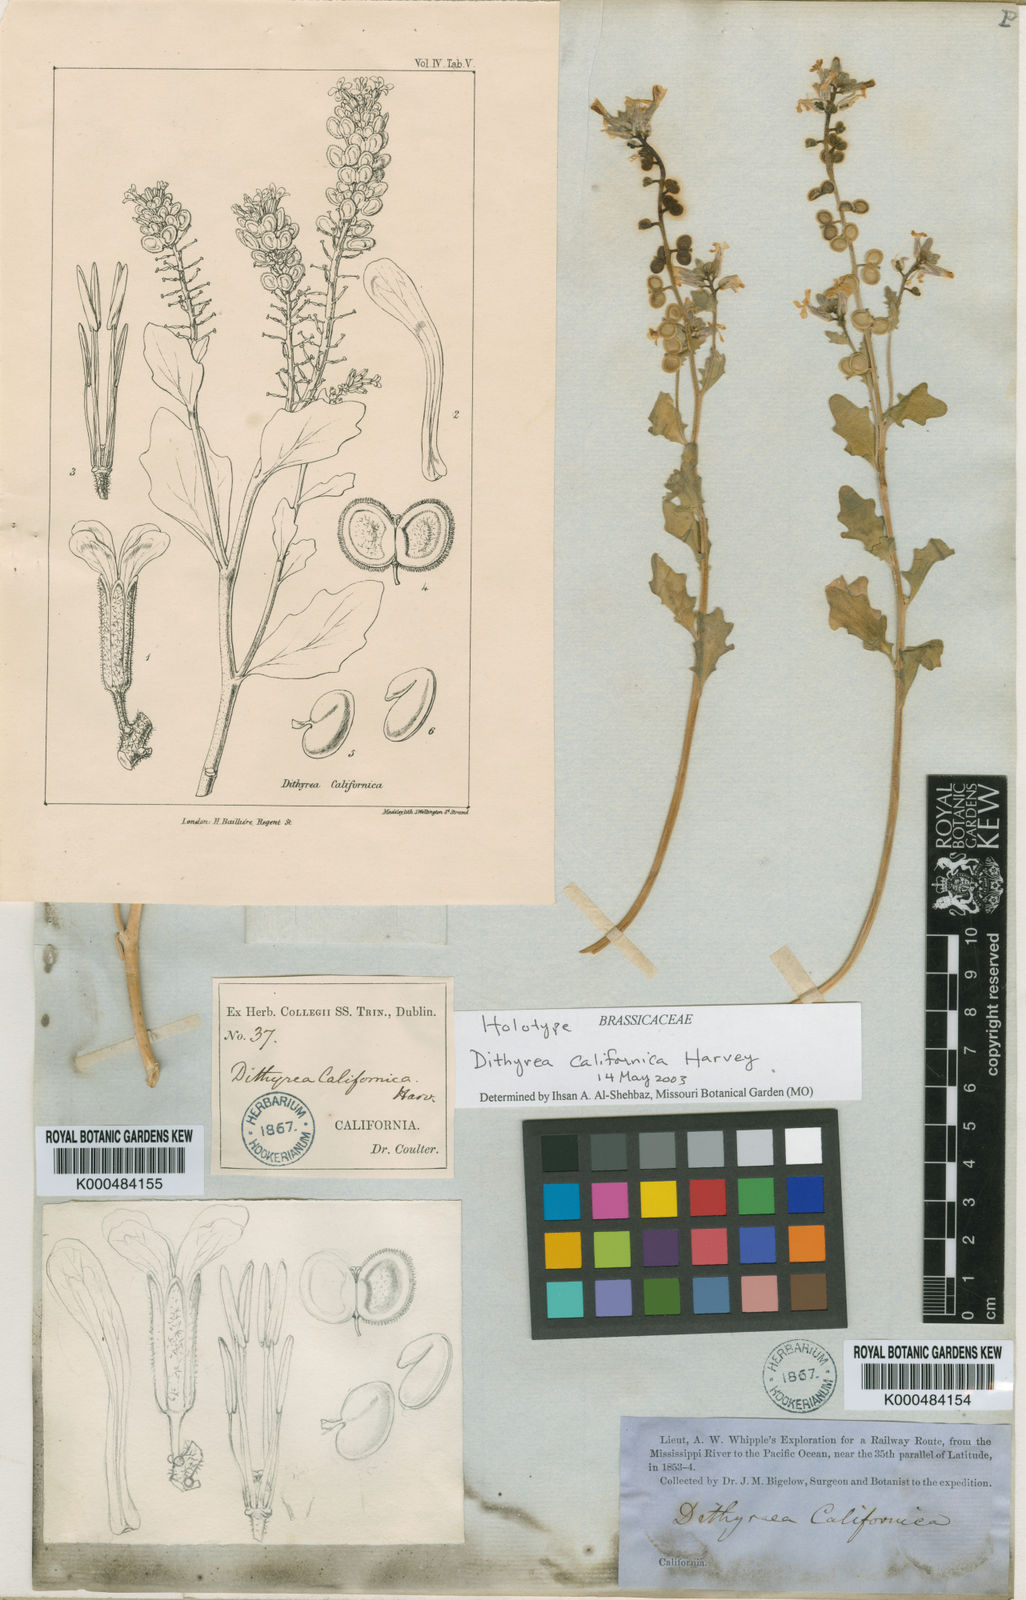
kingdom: Plantae
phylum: Tracheophyta
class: Magnoliopsida
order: Brassicales
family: Brassicaceae
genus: Dithyrea
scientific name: Dithyrea californica
